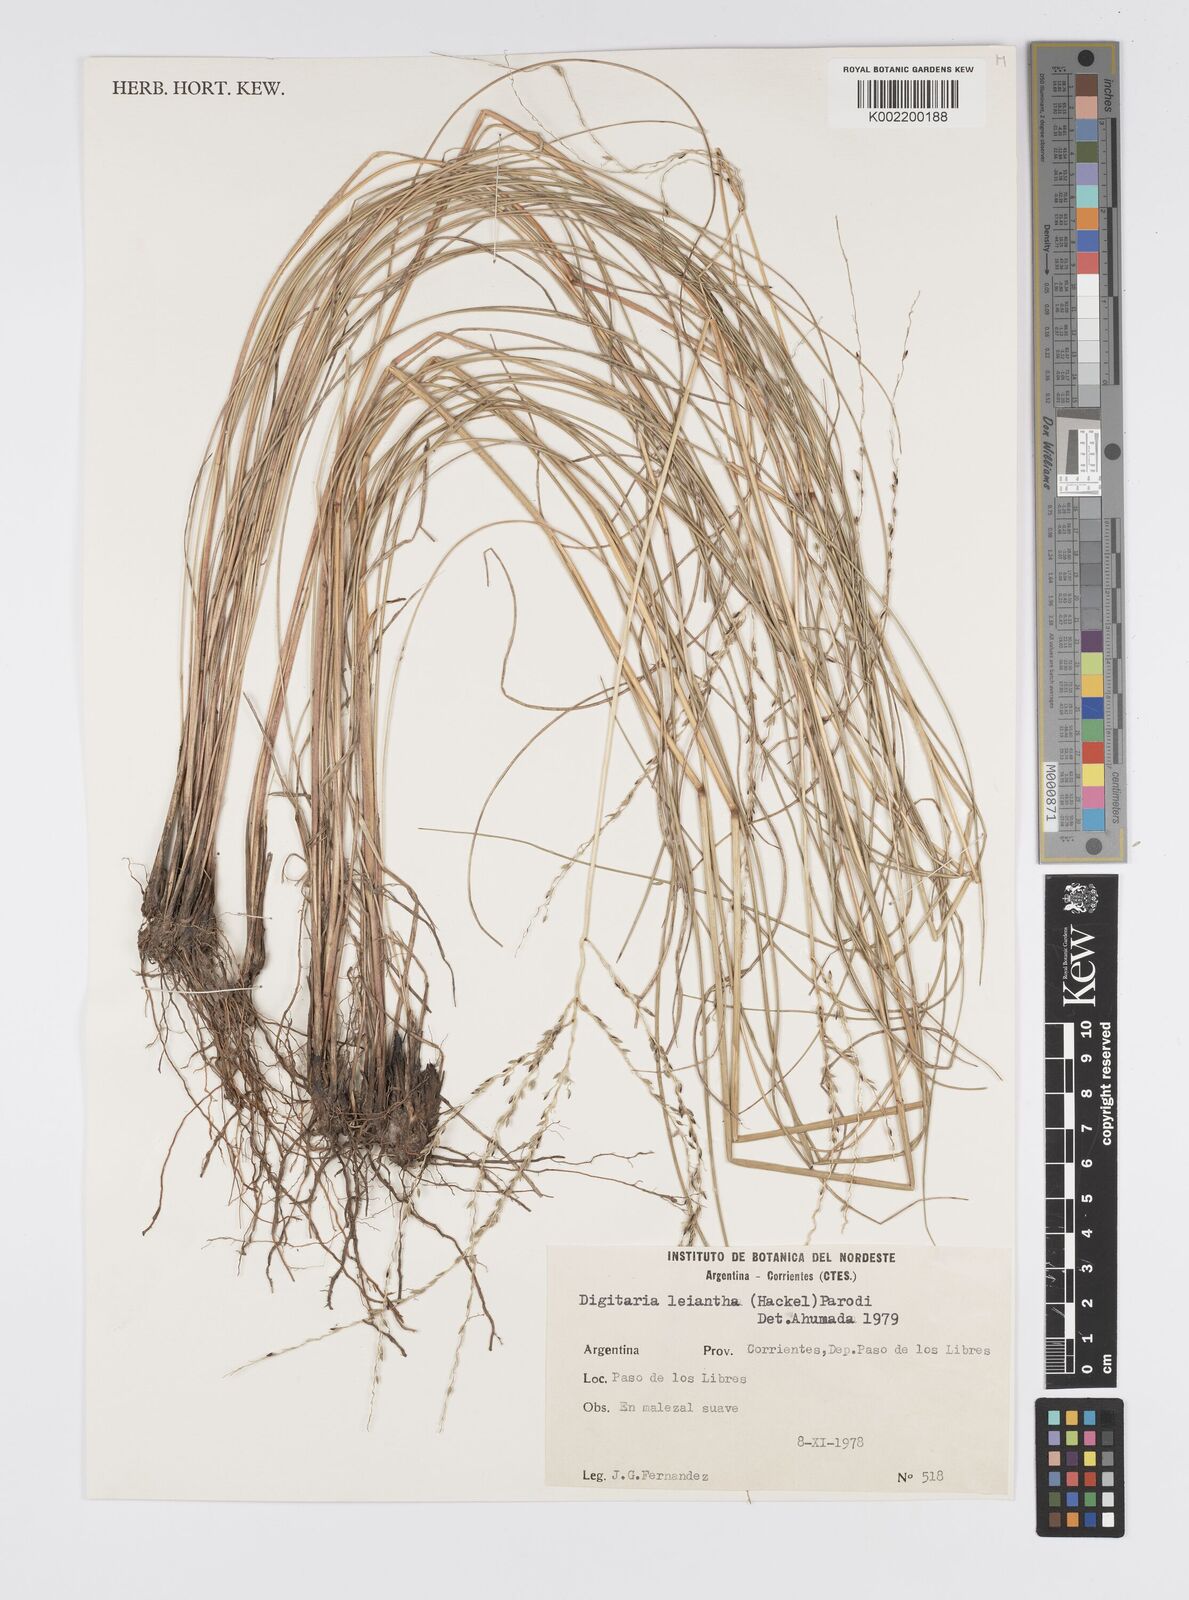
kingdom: Plantae
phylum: Tracheophyta
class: Liliopsida
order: Poales
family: Poaceae
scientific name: Poaceae
